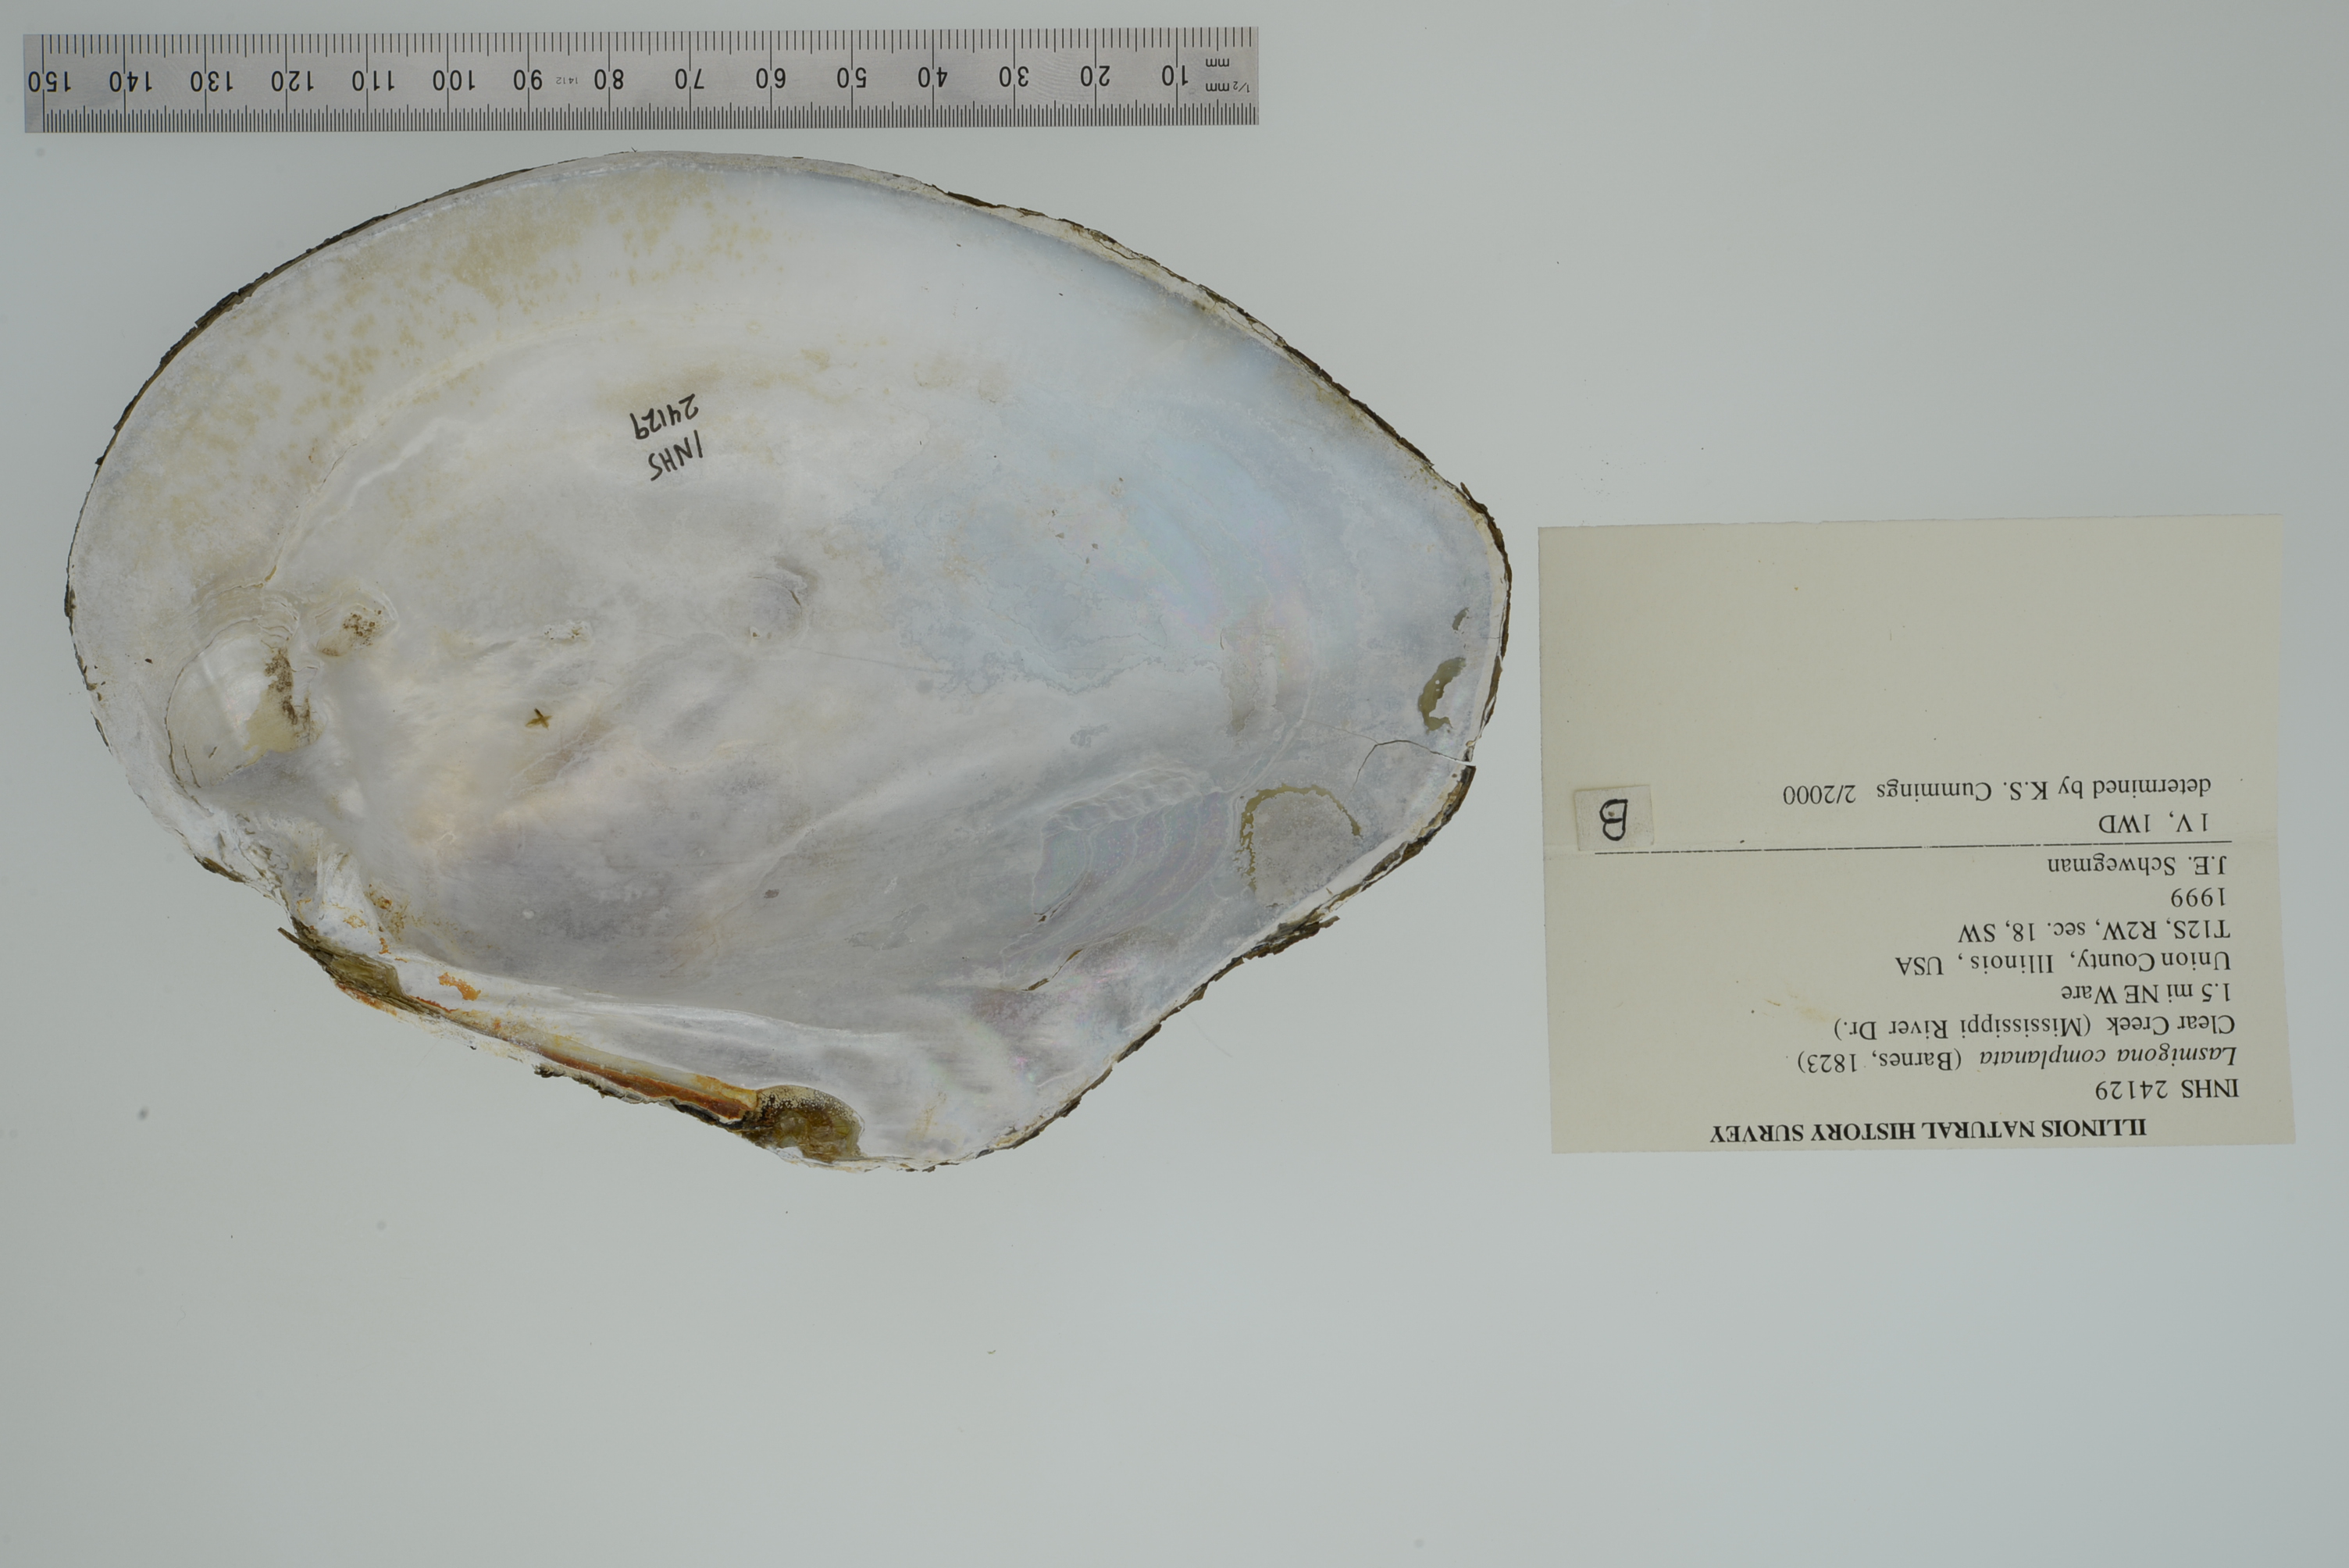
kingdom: Animalia
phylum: Mollusca
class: Bivalvia
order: Unionida
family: Unionidae
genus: Lasmigona
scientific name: Lasmigona complanata
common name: White heelsplitter
